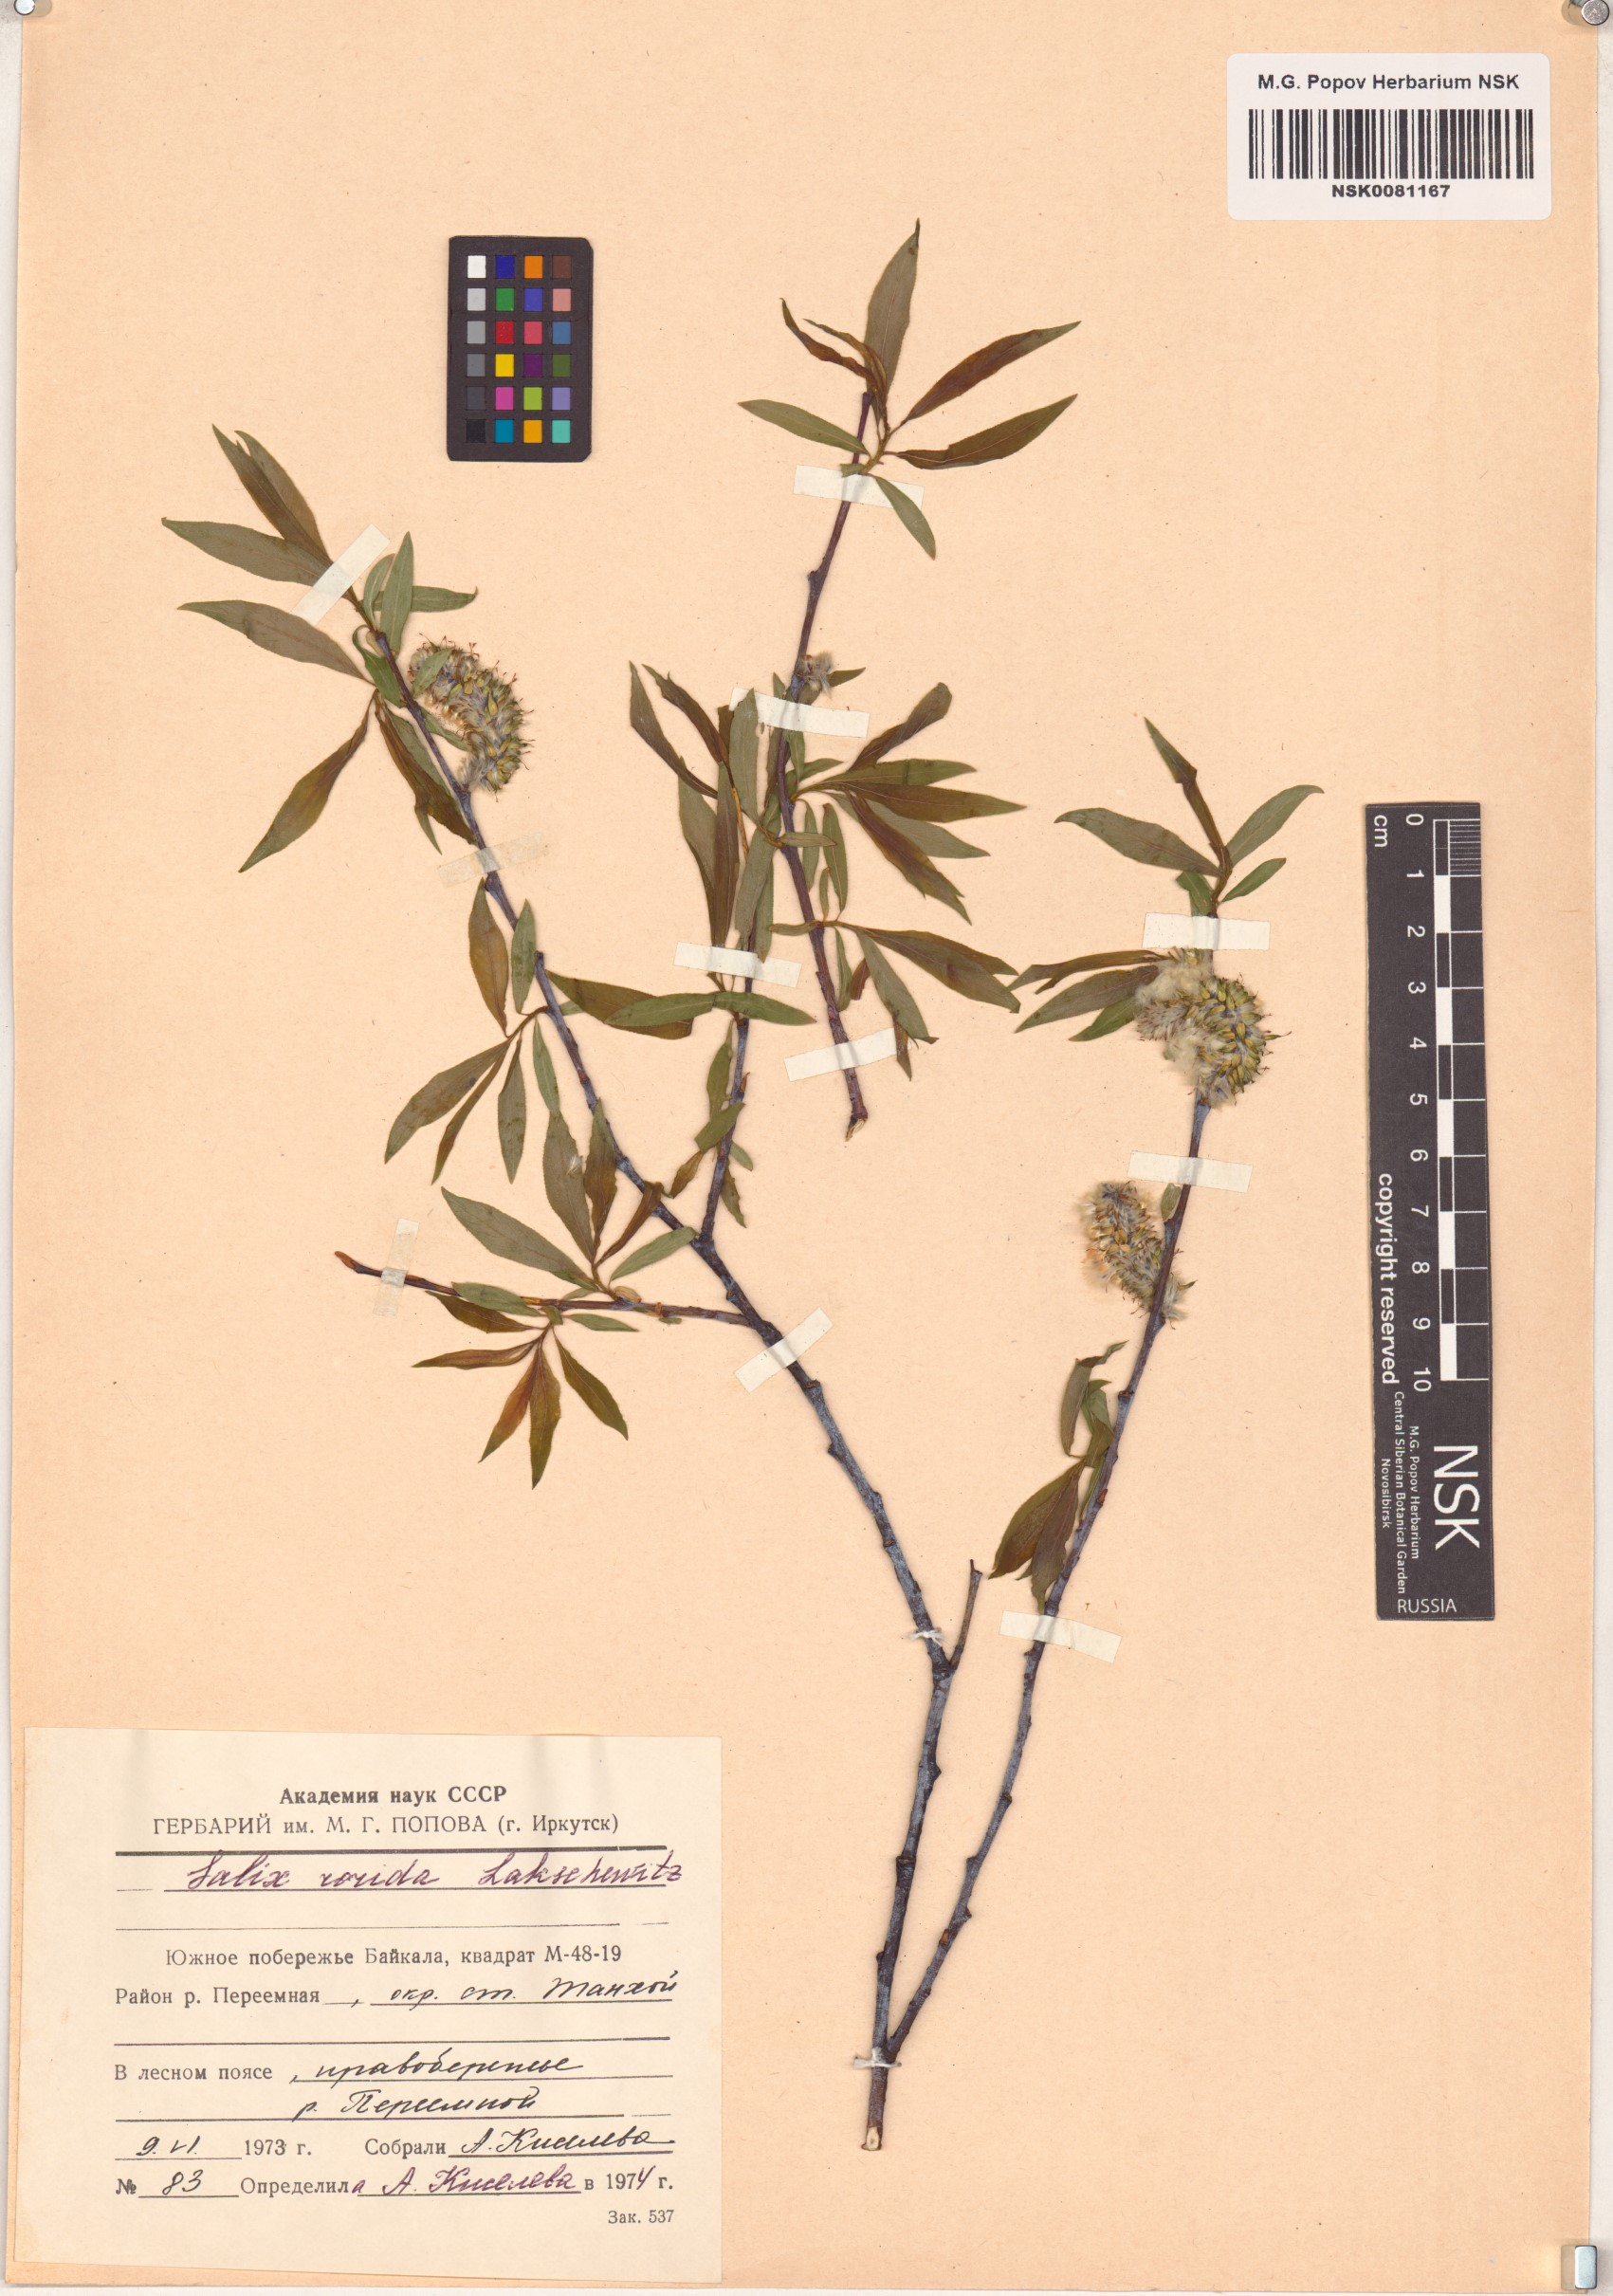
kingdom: Plantae
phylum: Tracheophyta
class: Magnoliopsida
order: Malpighiales
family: Salicaceae
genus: Salix
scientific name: Salix rorida
